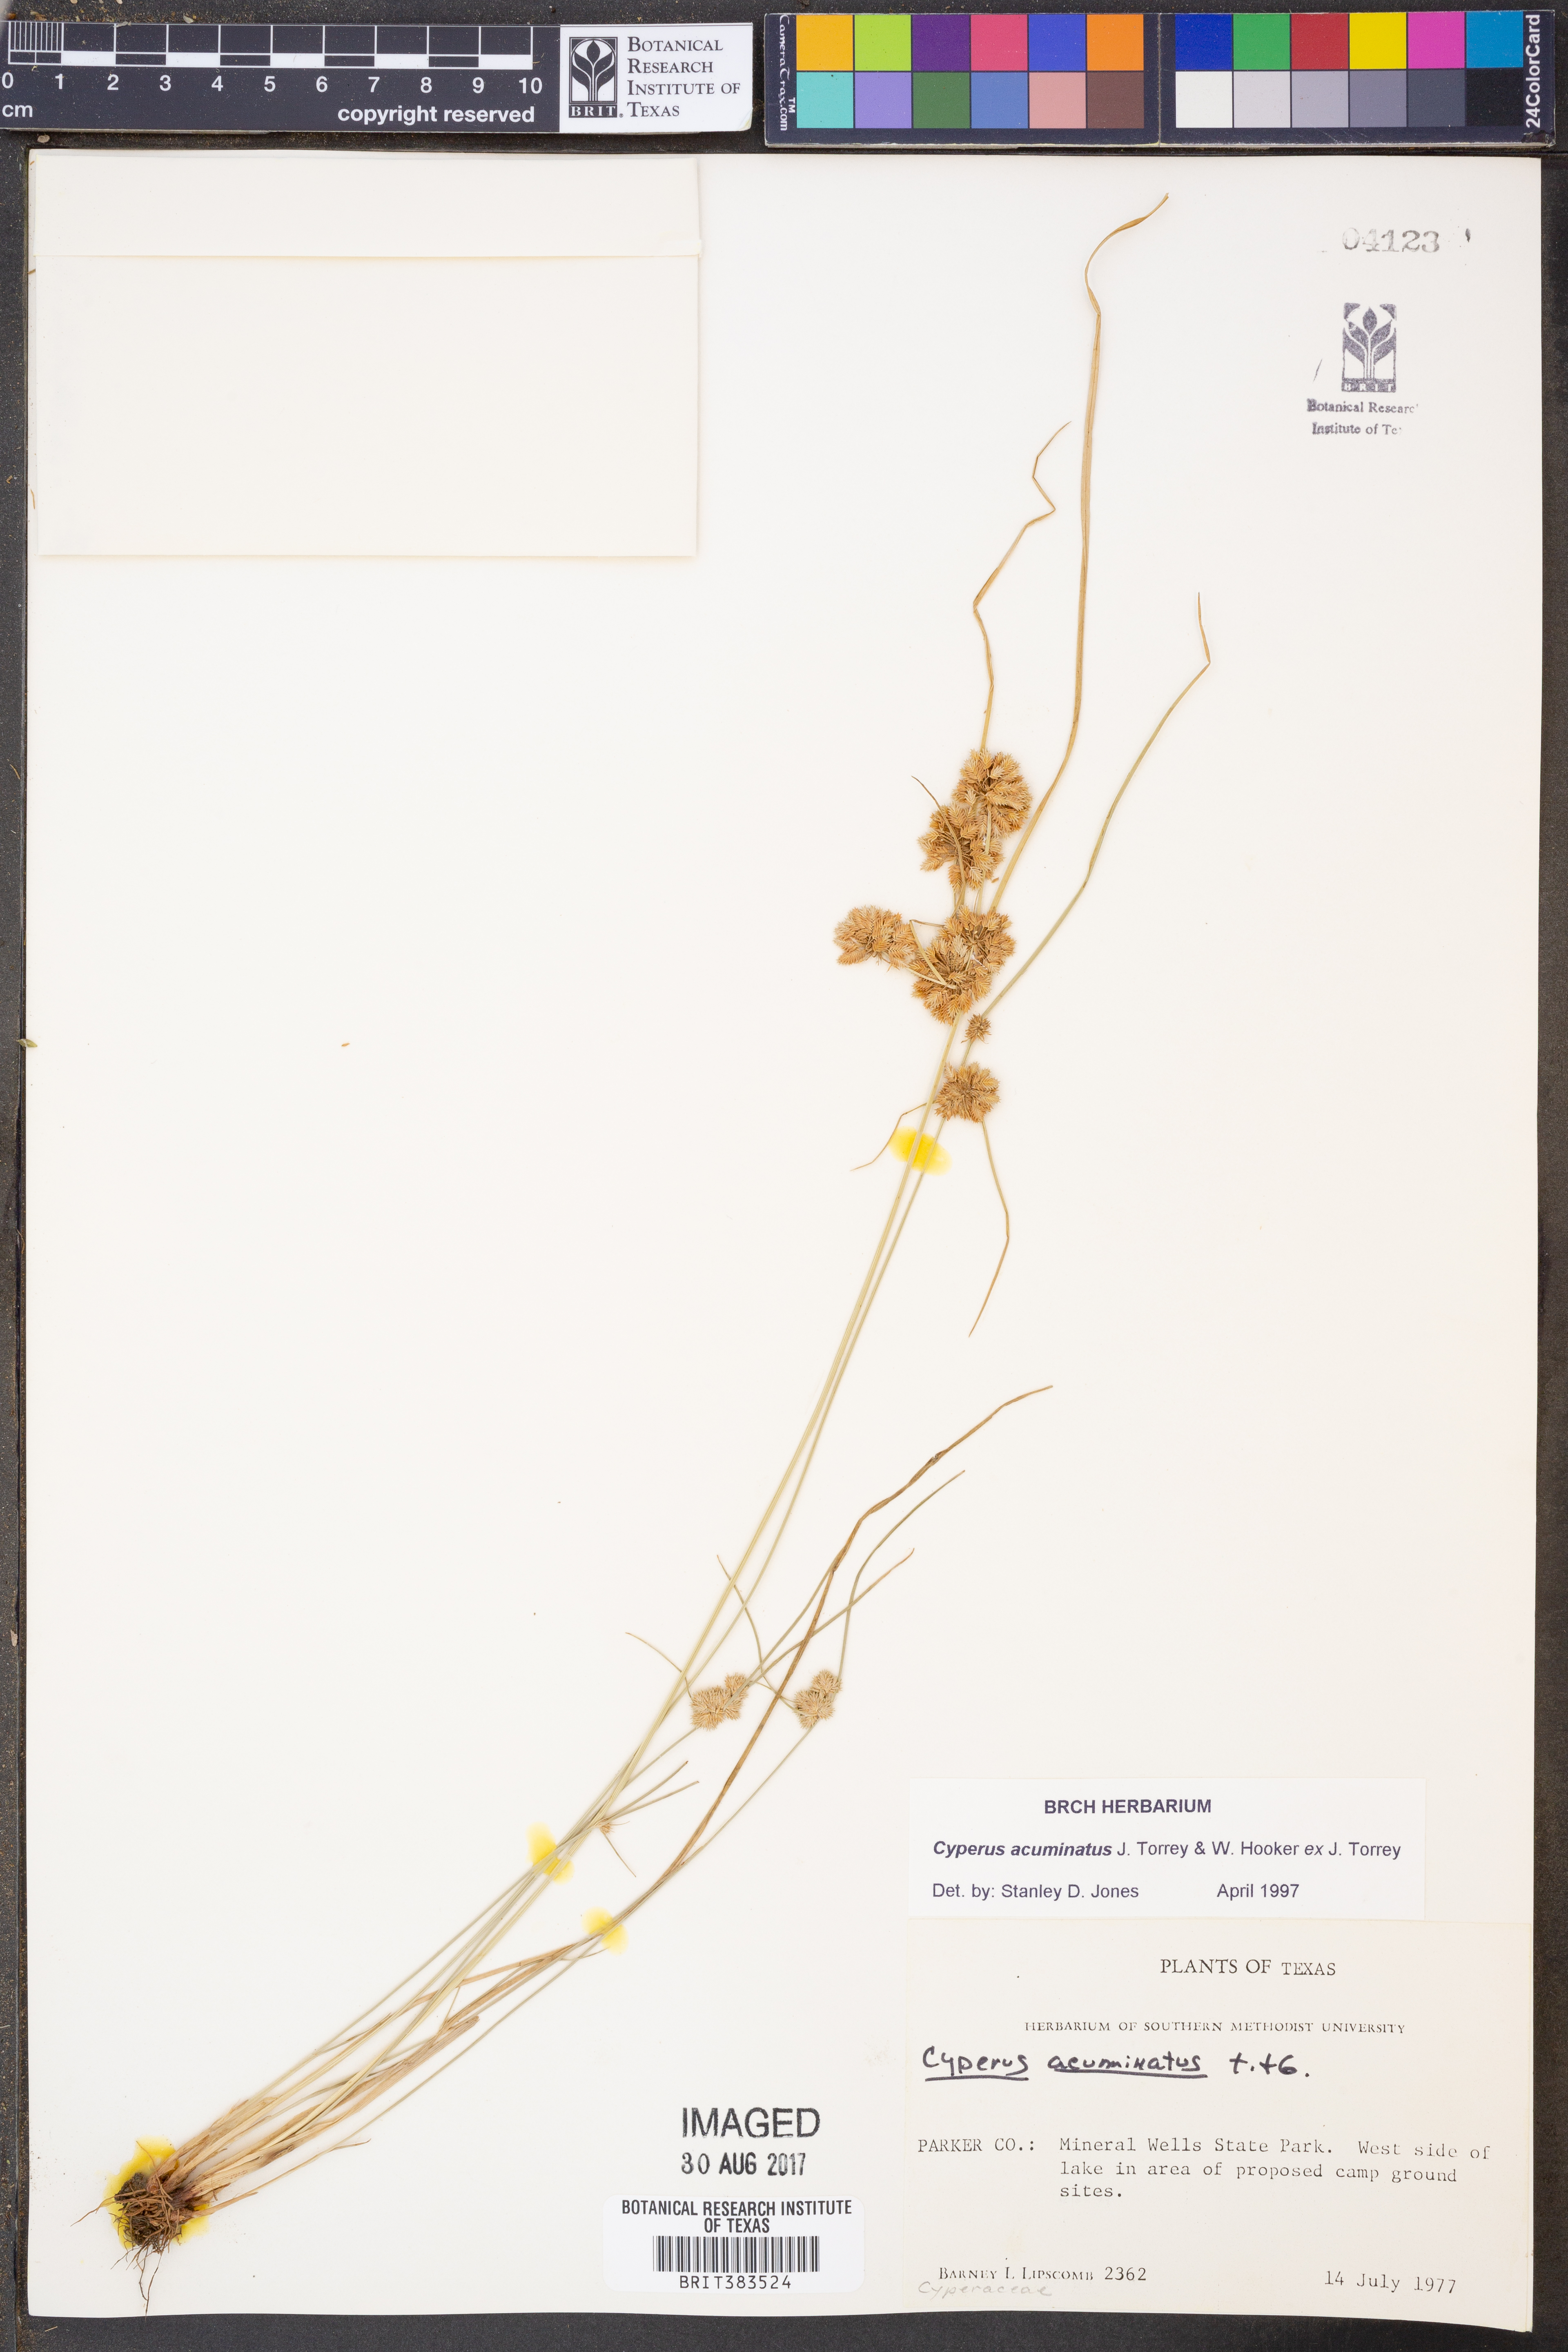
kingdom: Plantae
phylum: Tracheophyta
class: Liliopsida
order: Poales
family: Cyperaceae
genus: Cyperus
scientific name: Cyperus acuminatus
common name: Short-pointed cyperus
